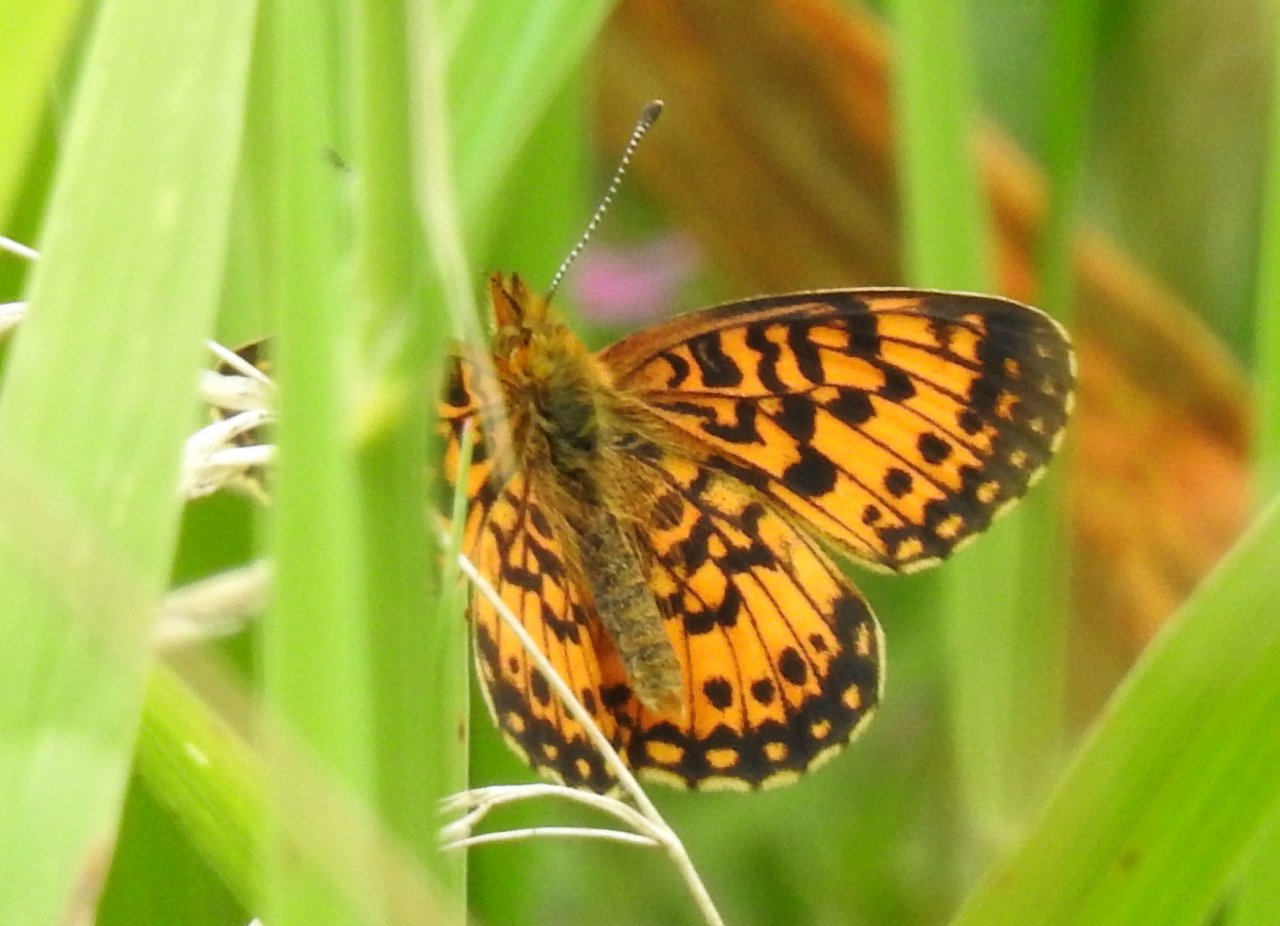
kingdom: Animalia
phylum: Arthropoda
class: Insecta
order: Lepidoptera
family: Nymphalidae
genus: Boloria
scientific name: Boloria selene
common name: Silver-bordered Fritillary
